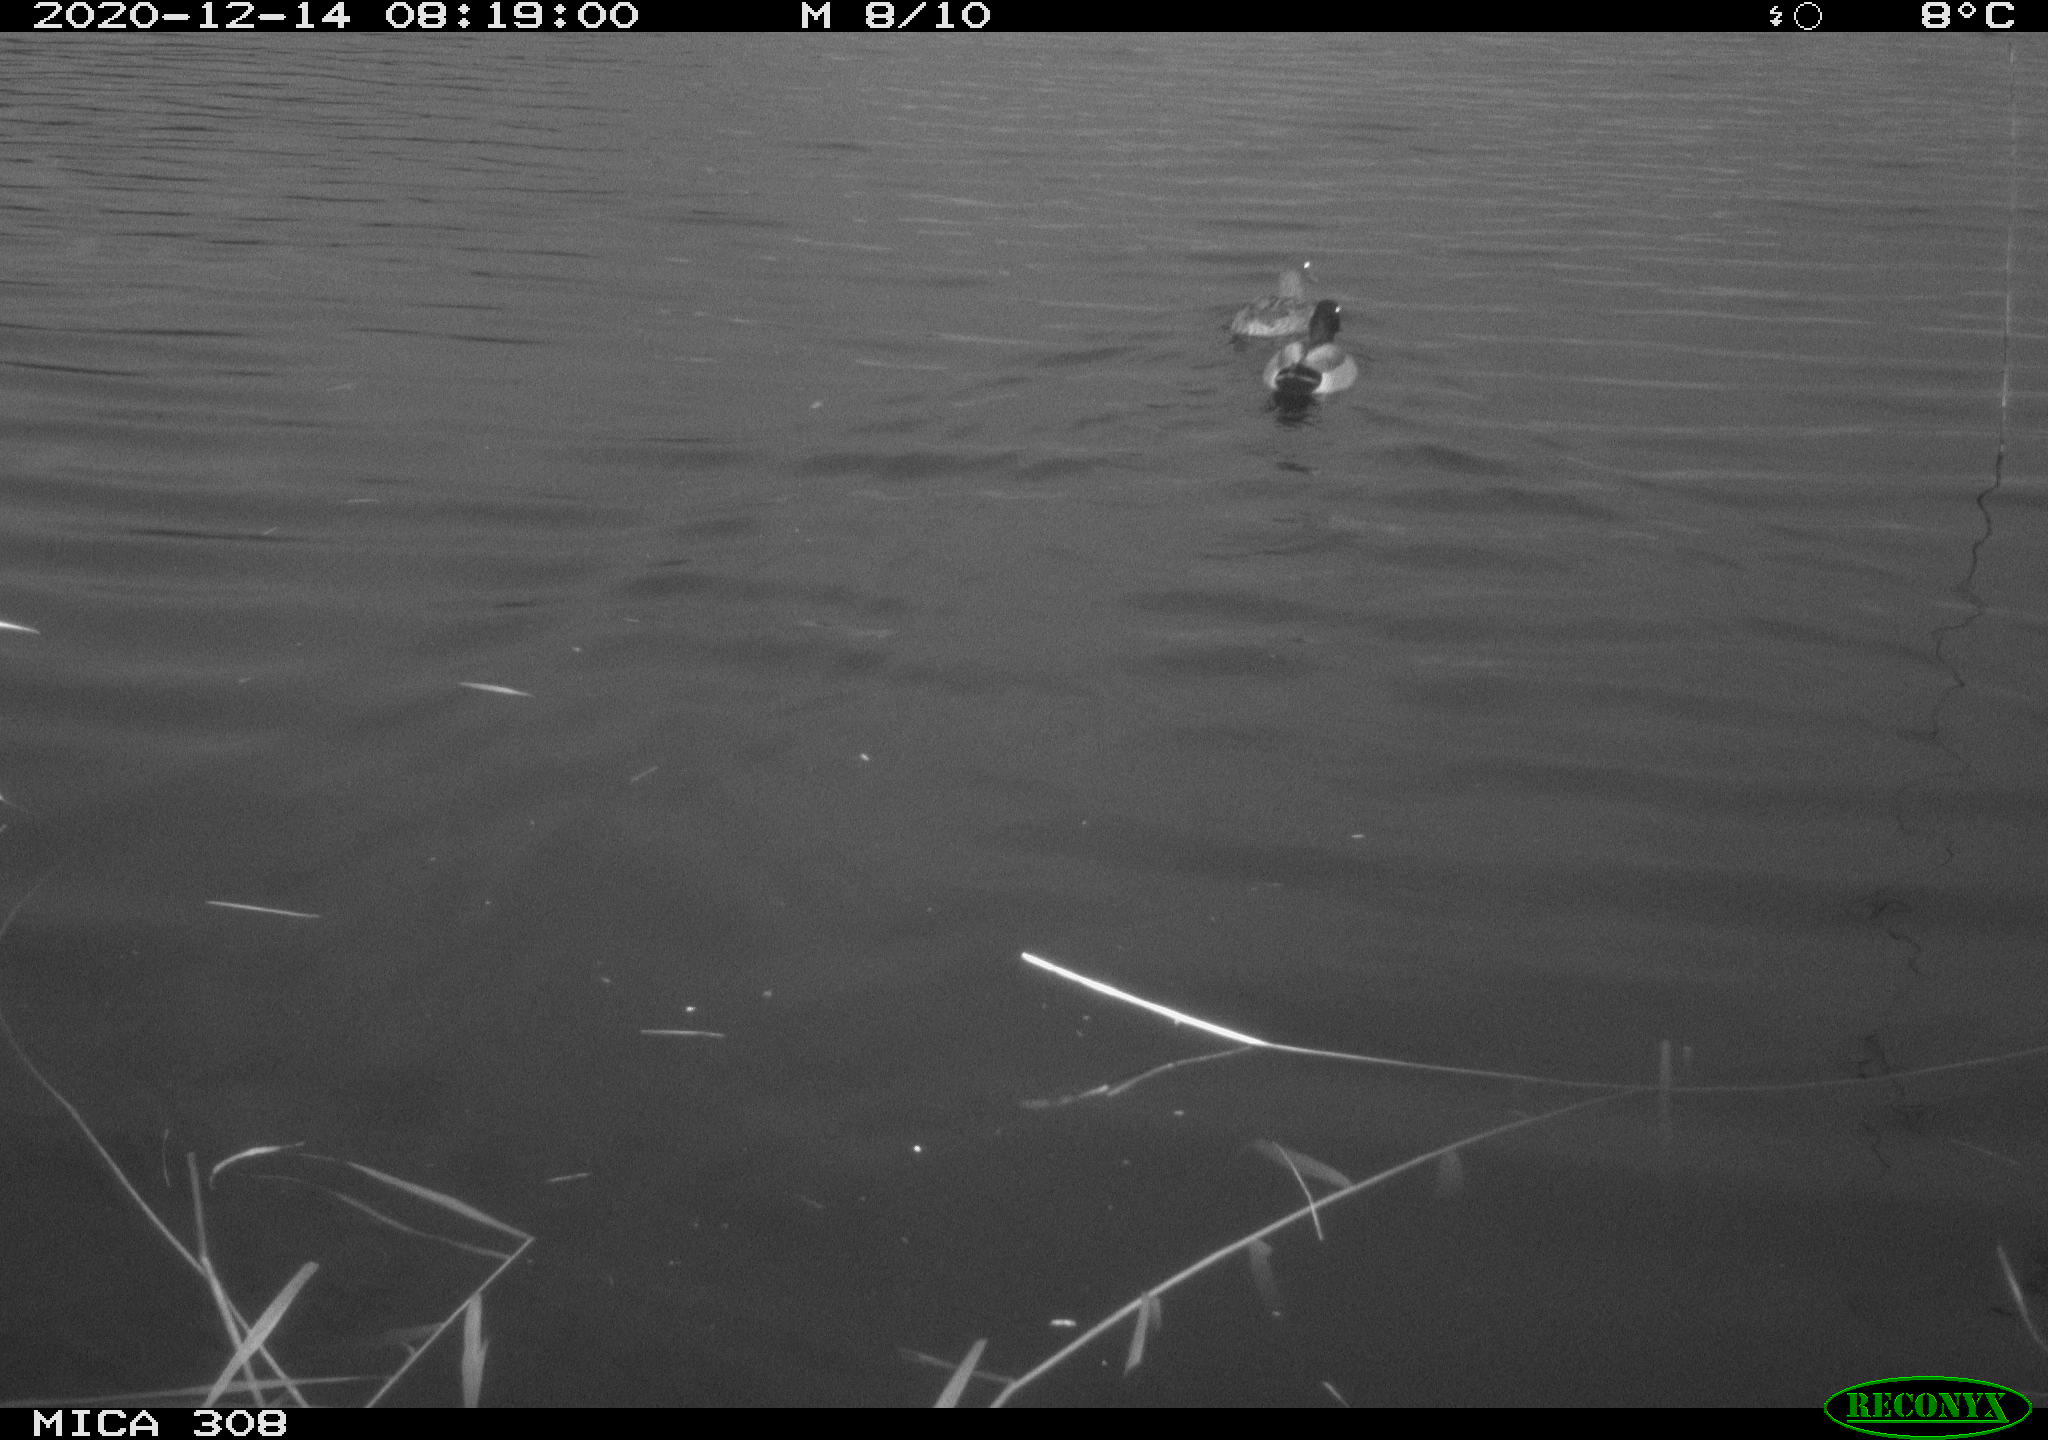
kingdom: Animalia
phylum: Chordata
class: Aves
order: Anseriformes
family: Anatidae
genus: Anas
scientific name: Anas platyrhynchos
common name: Mallard
